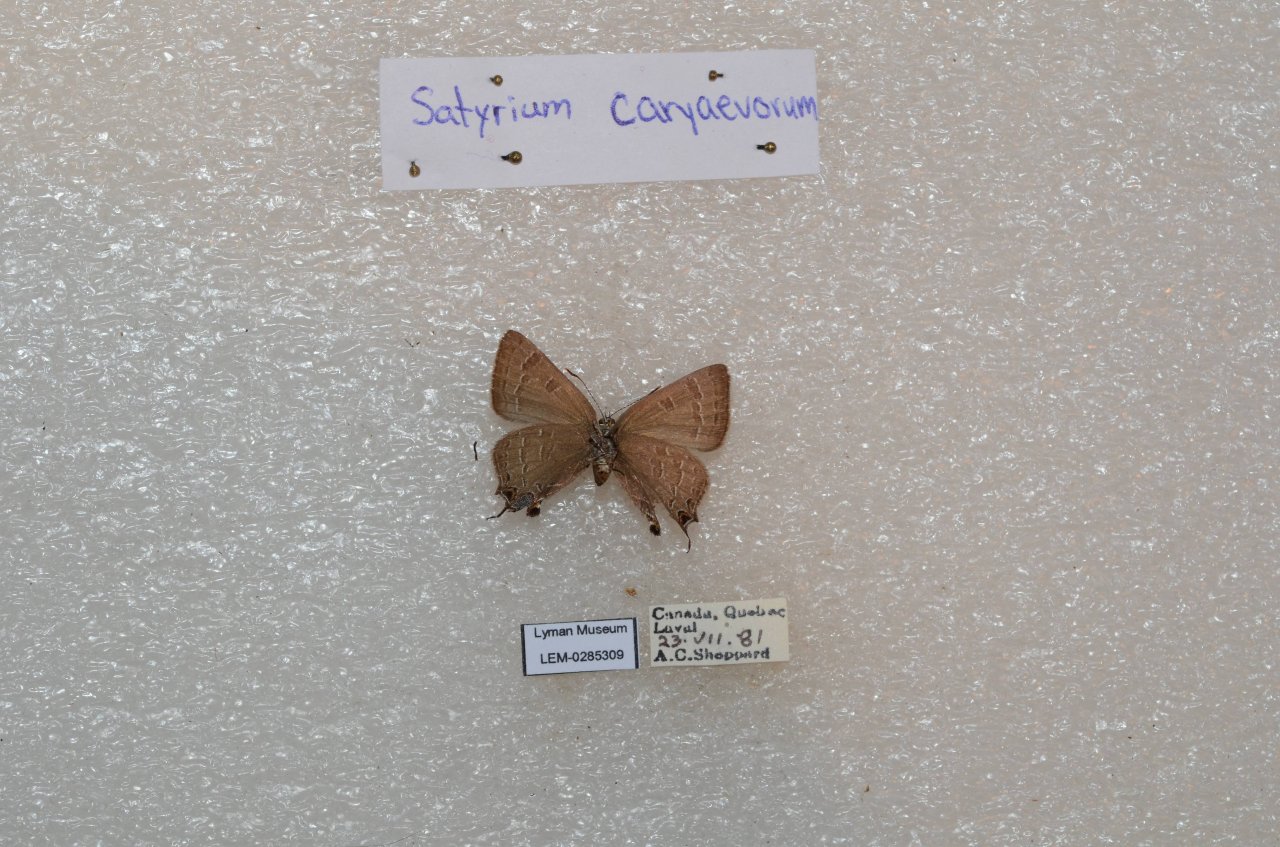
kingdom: Animalia
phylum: Arthropoda
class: Insecta
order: Lepidoptera
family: Lycaenidae
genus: Strymon
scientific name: Strymon caryaevorus
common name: Hickory Hairstreak
